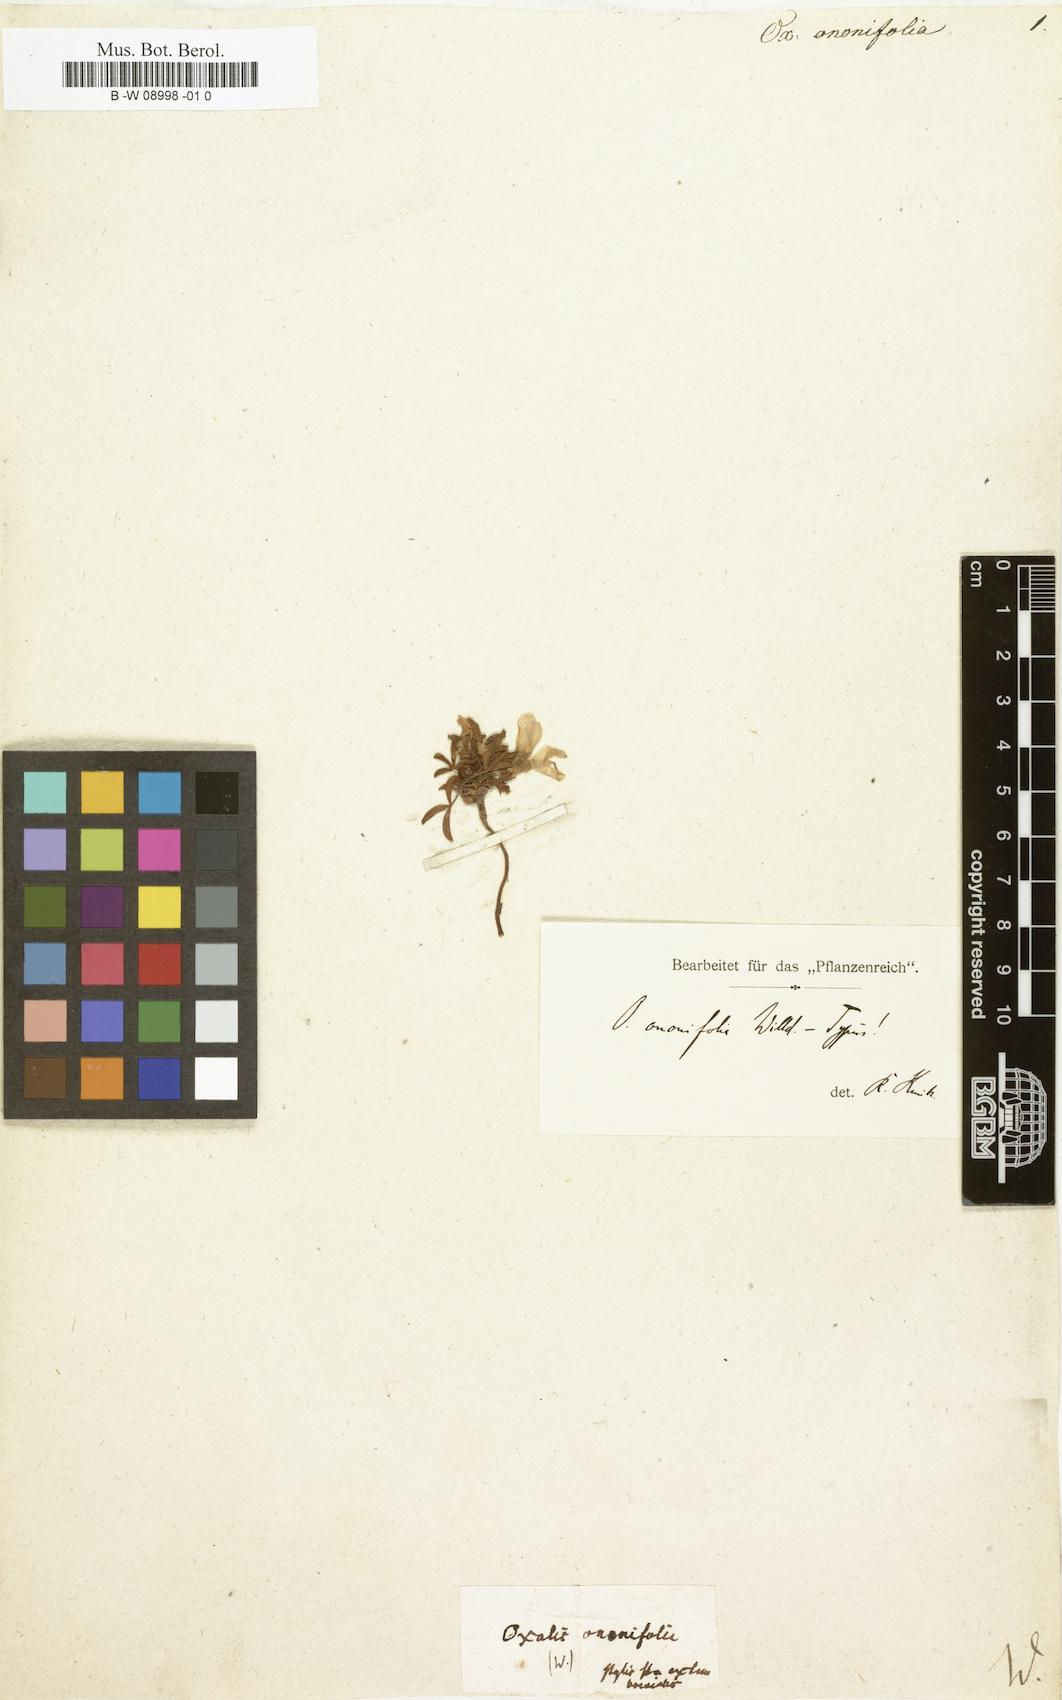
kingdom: Plantae
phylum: Tracheophyta
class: Magnoliopsida
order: Oxalidales
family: Oxalidaceae
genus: Oxalis
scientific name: Oxalis ononifolia
